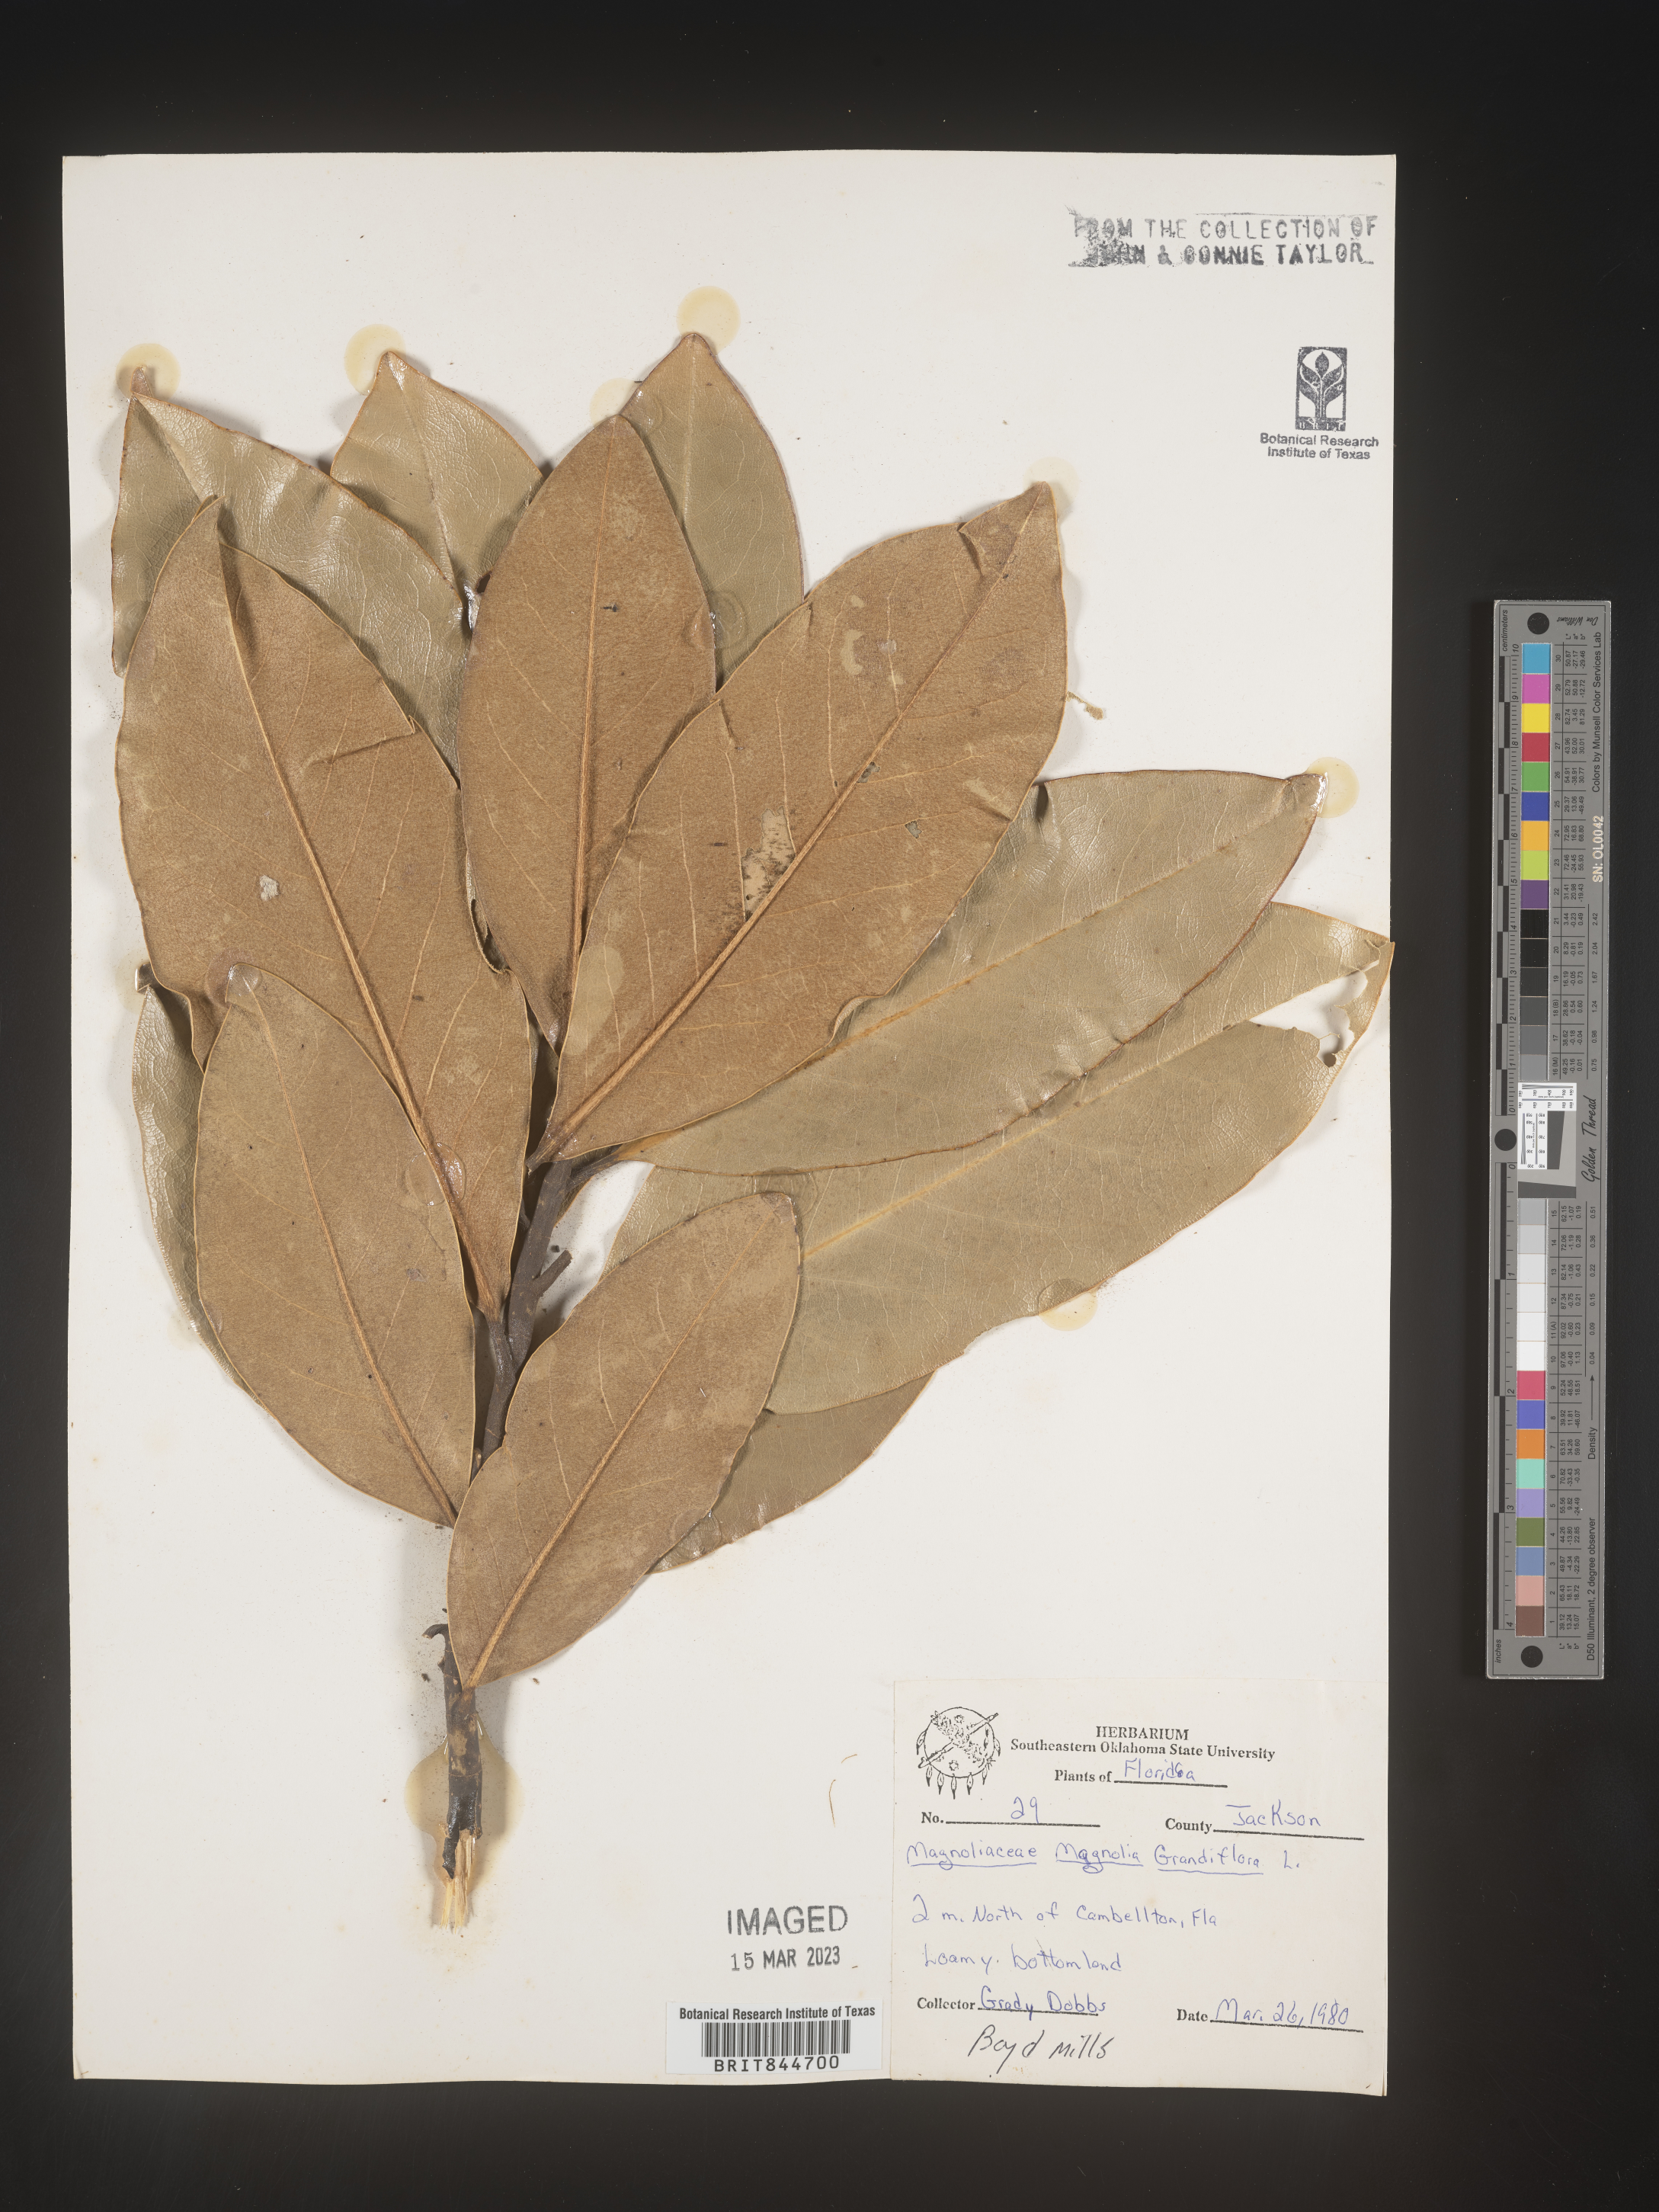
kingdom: Plantae
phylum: Tracheophyta
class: Magnoliopsida
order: Magnoliales
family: Magnoliaceae
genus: Magnolia
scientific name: Magnolia grandiflora
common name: Southern magnolia
